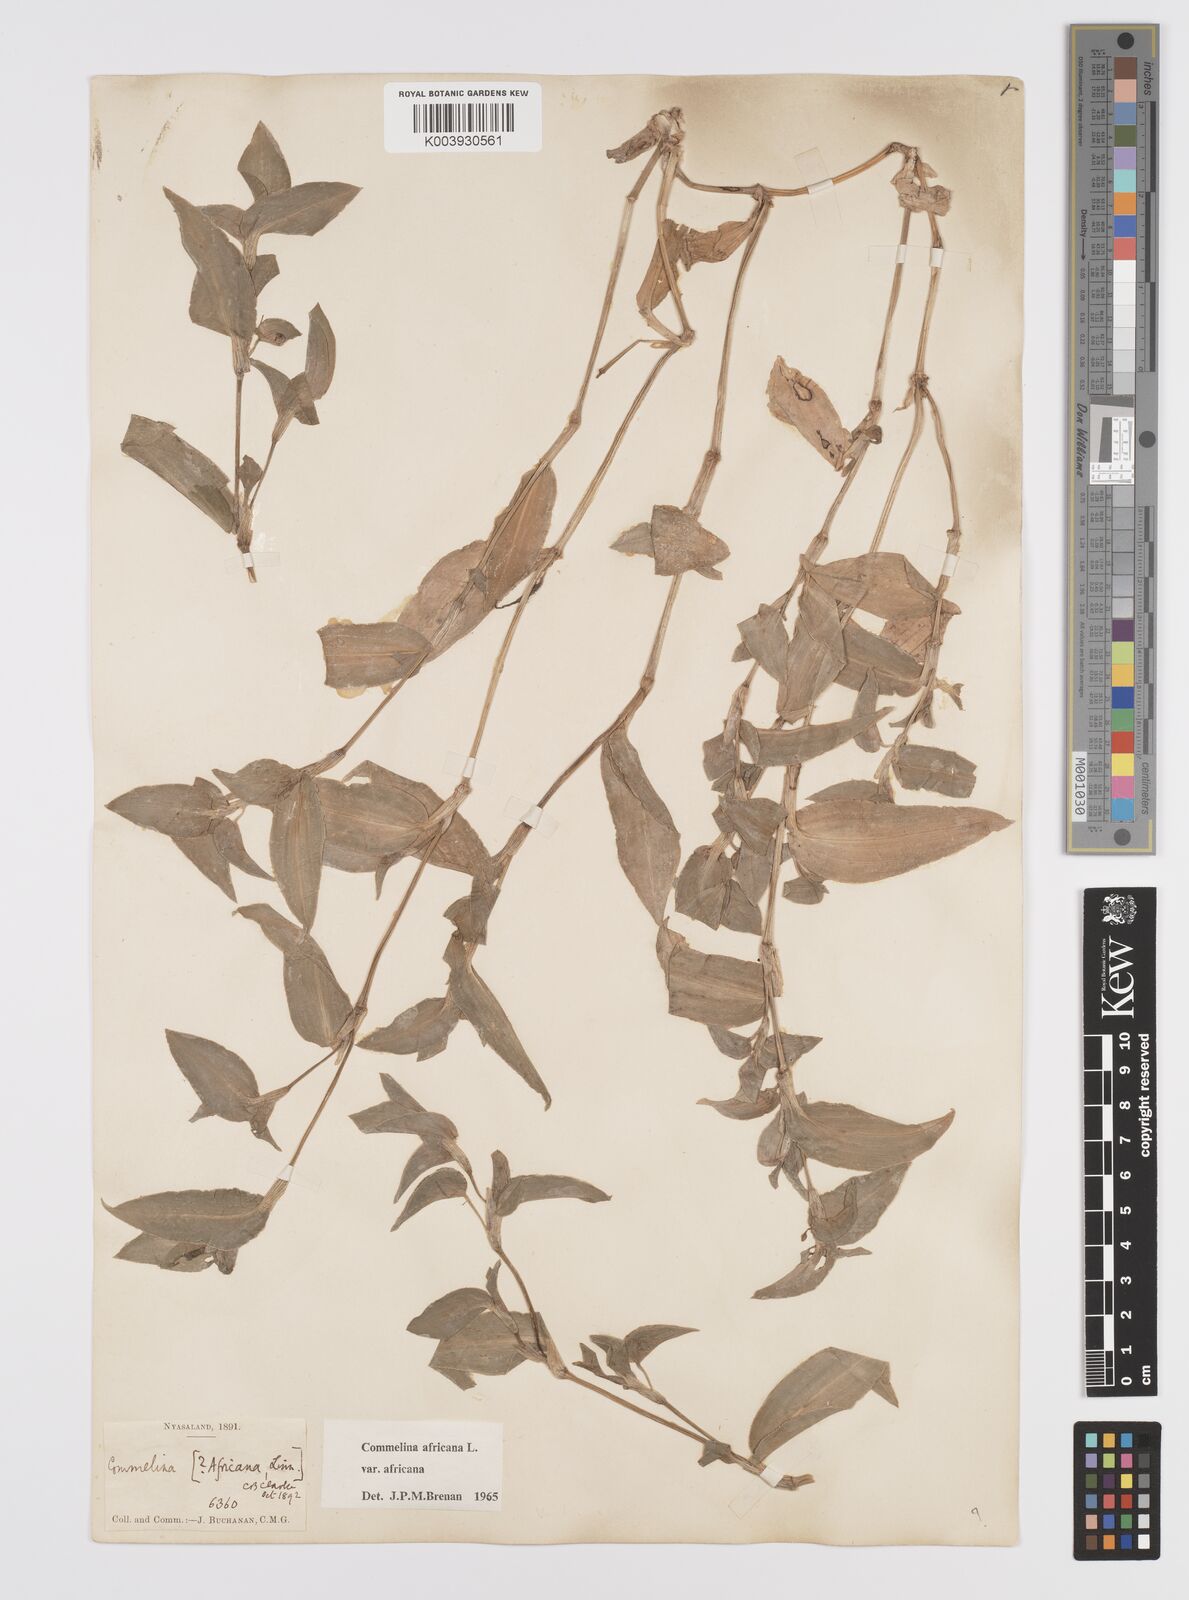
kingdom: Plantae
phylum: Tracheophyta
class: Liliopsida
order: Commelinales
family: Commelinaceae
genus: Commelina
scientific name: Commelina africana
